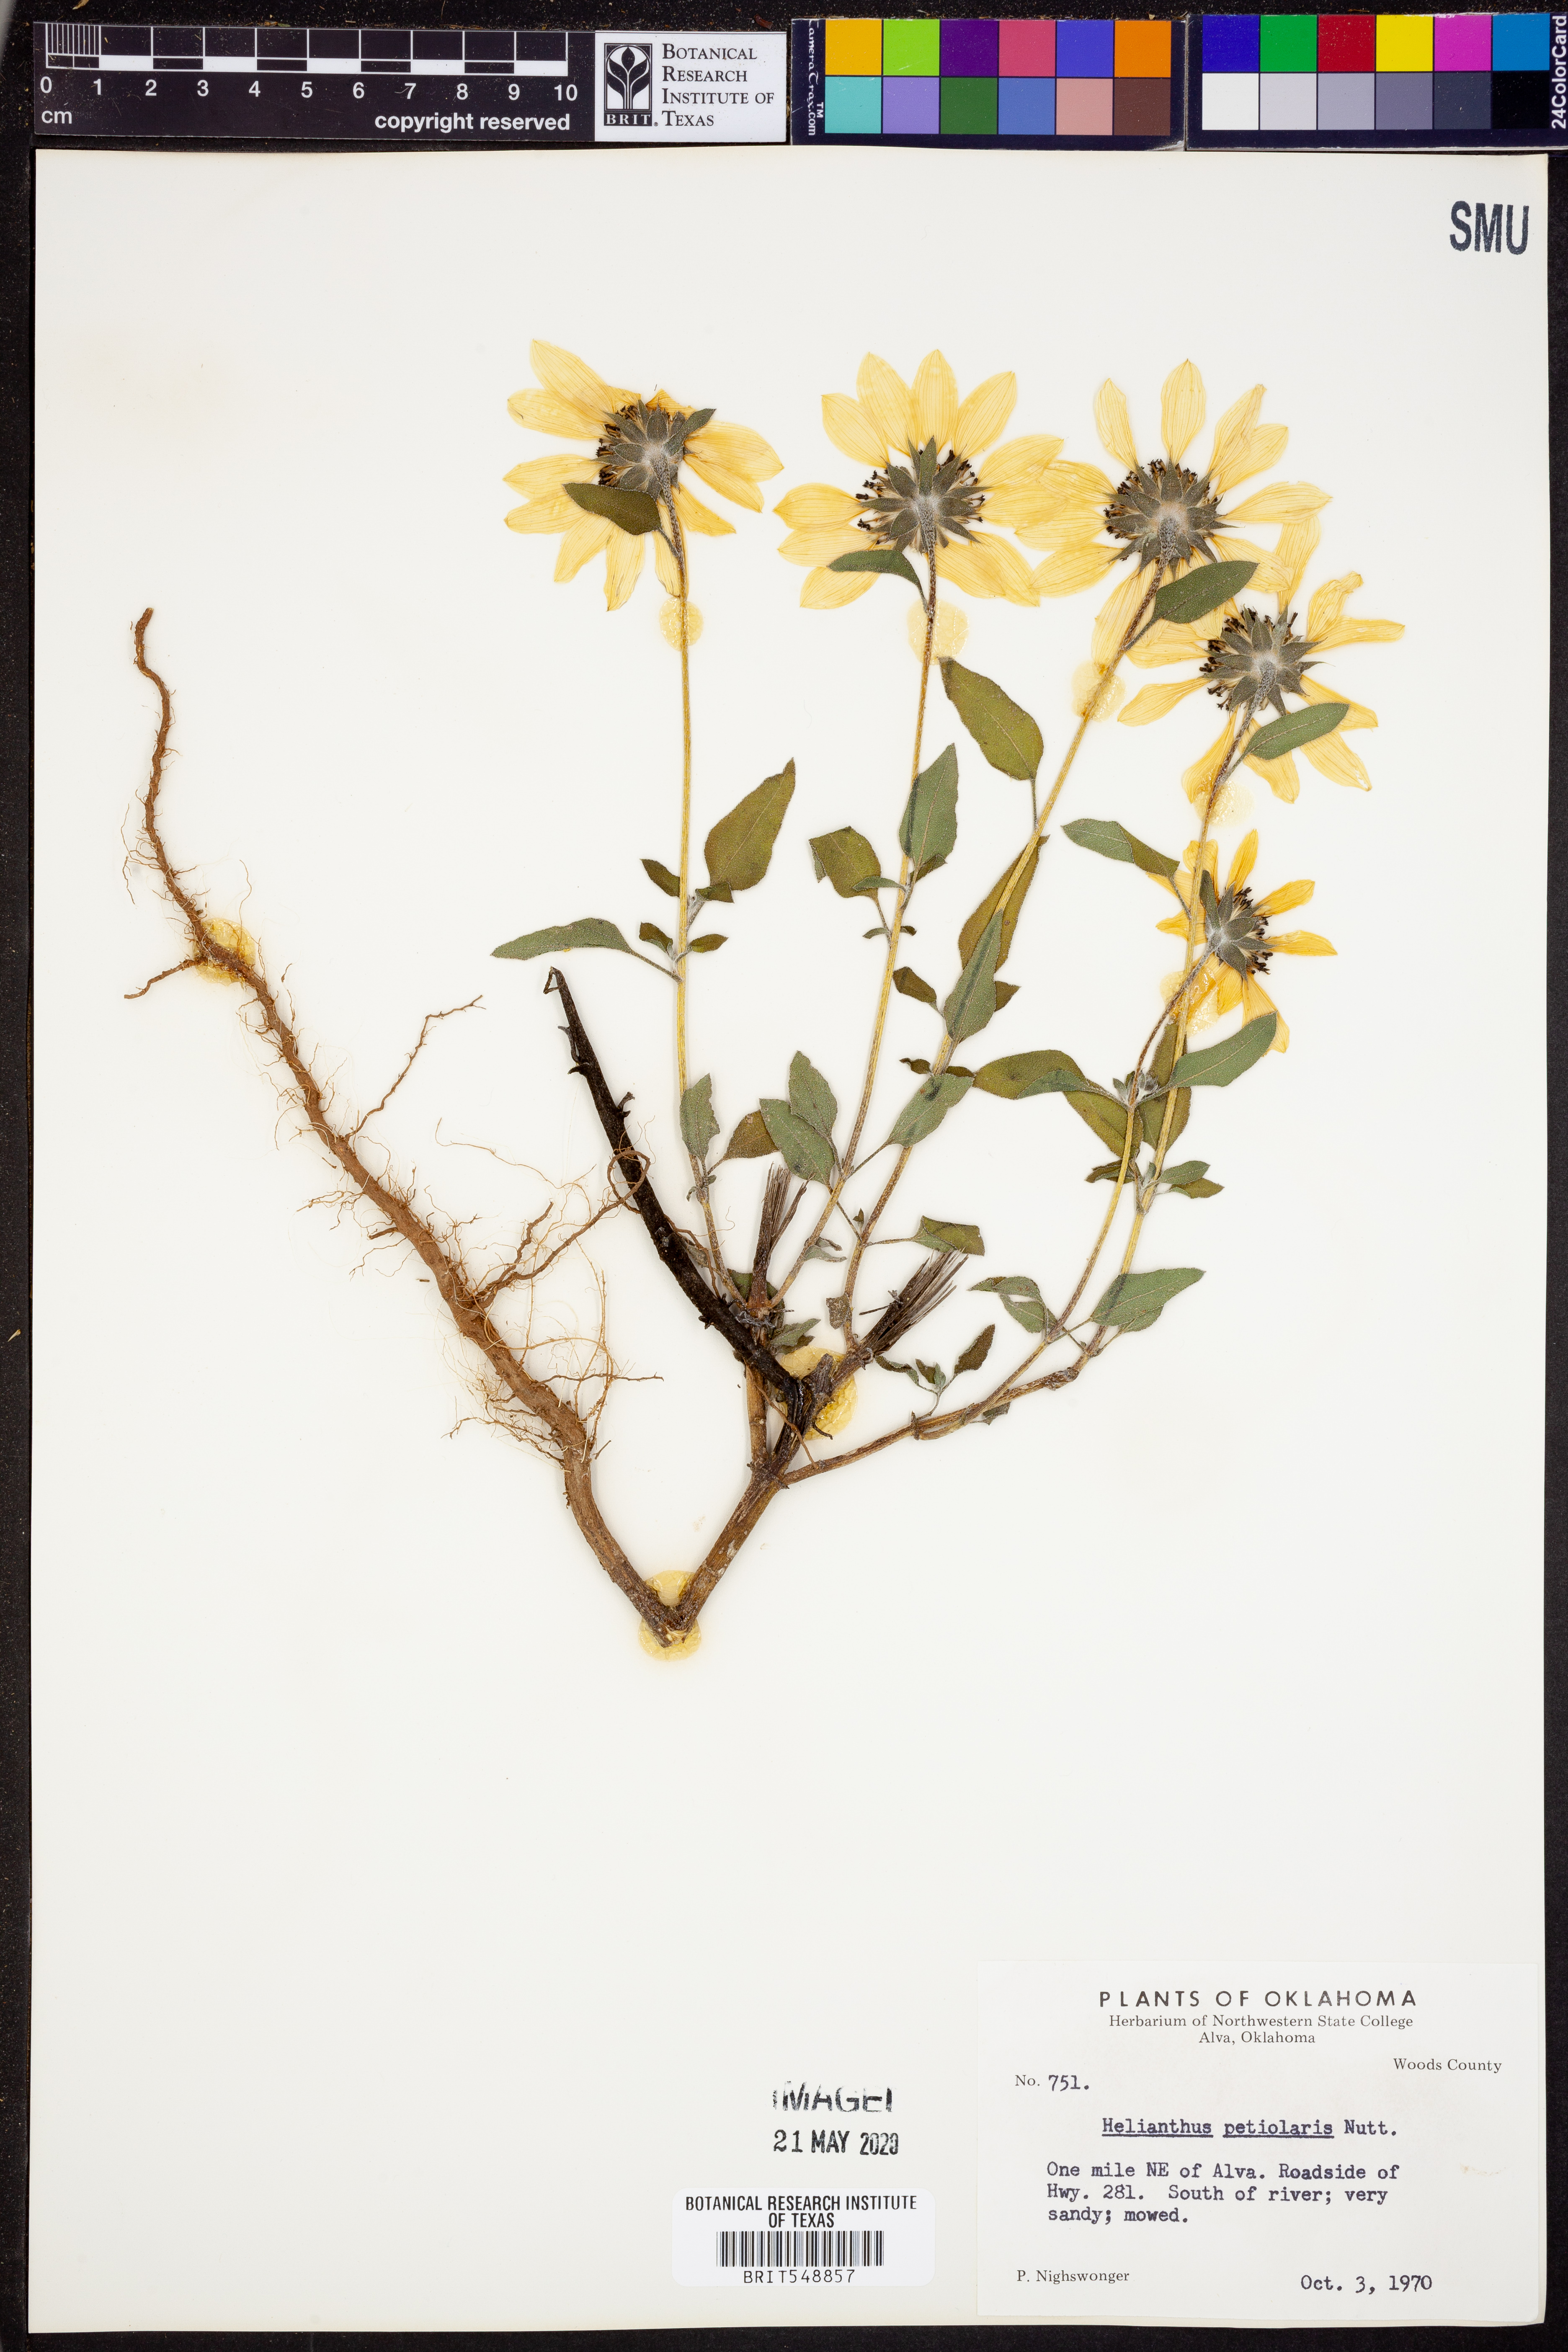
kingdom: Plantae
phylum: Tracheophyta
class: Magnoliopsida
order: Asterales
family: Asteraceae
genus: Helianthus
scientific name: Helianthus petiolaris
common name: Lesser sunflower
